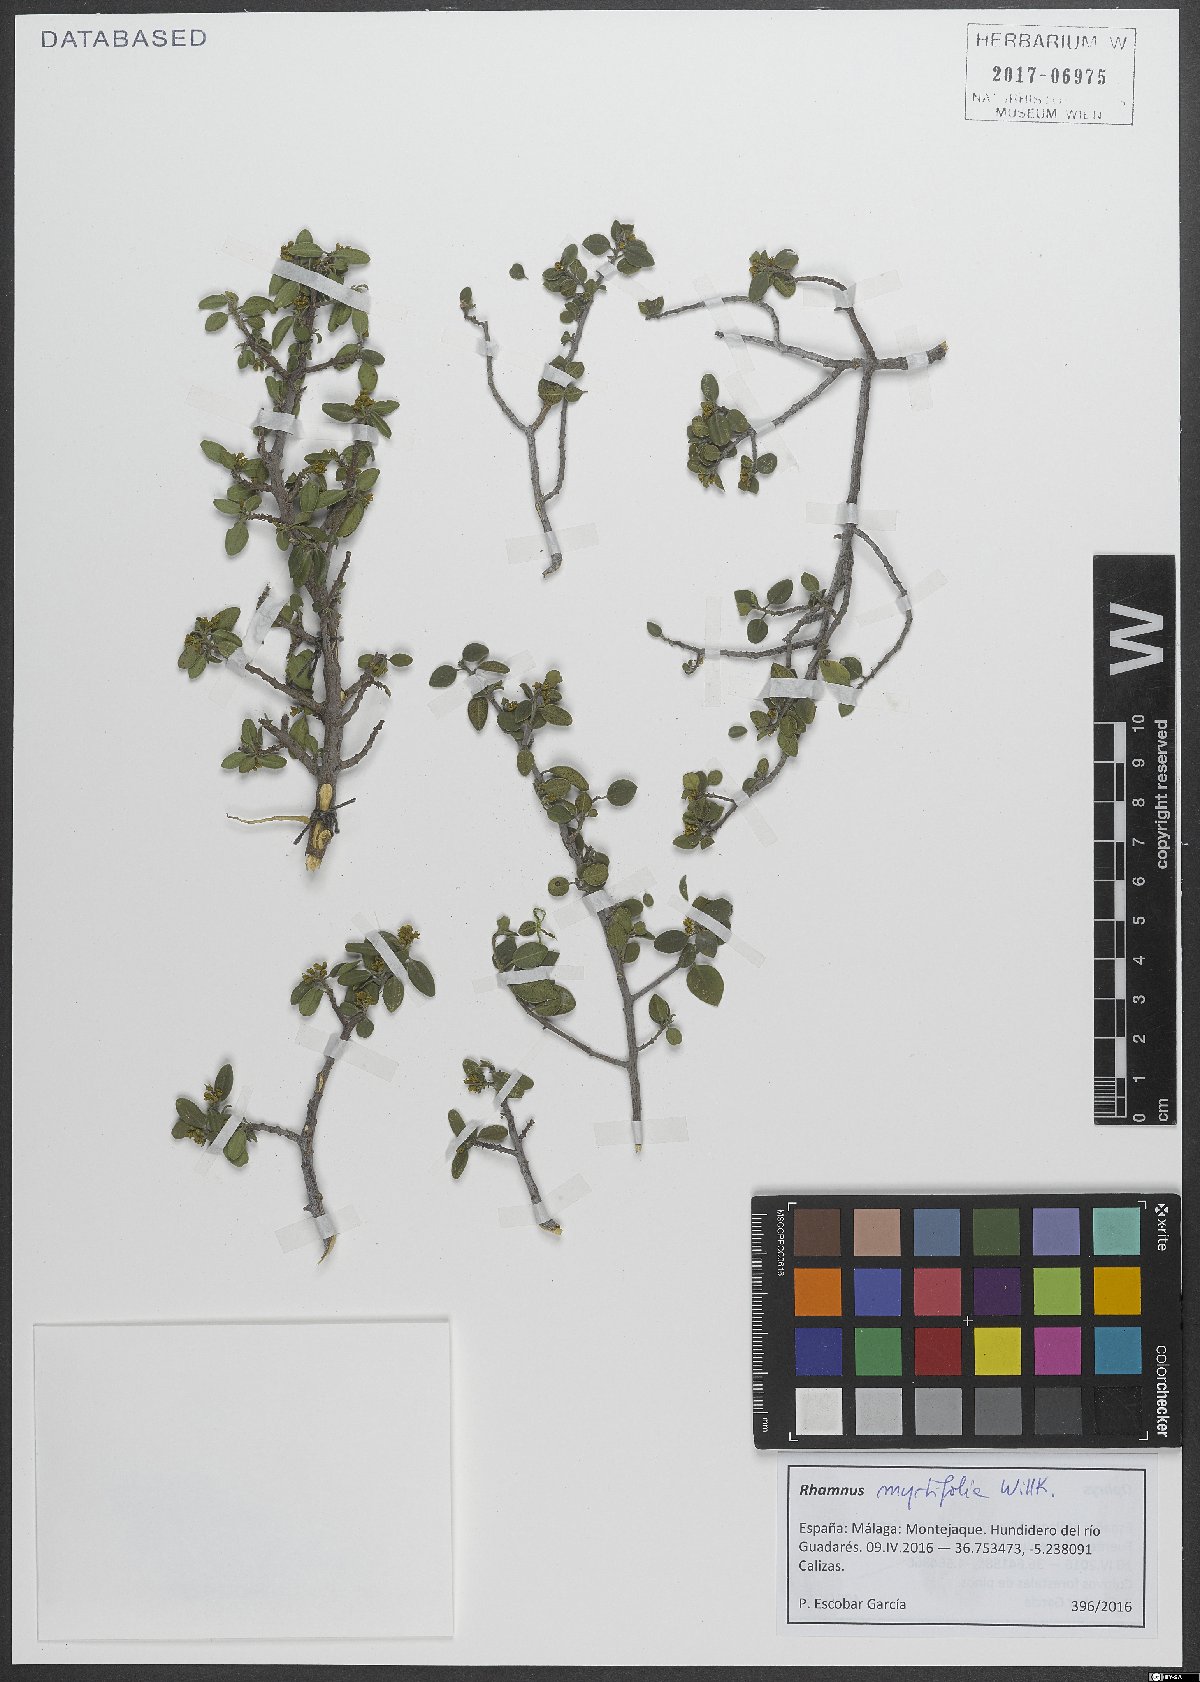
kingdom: Plantae
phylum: Tracheophyta
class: Magnoliopsida
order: Rosales
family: Rhamnaceae
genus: Rhamnus
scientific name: Rhamnus myrtifolia
